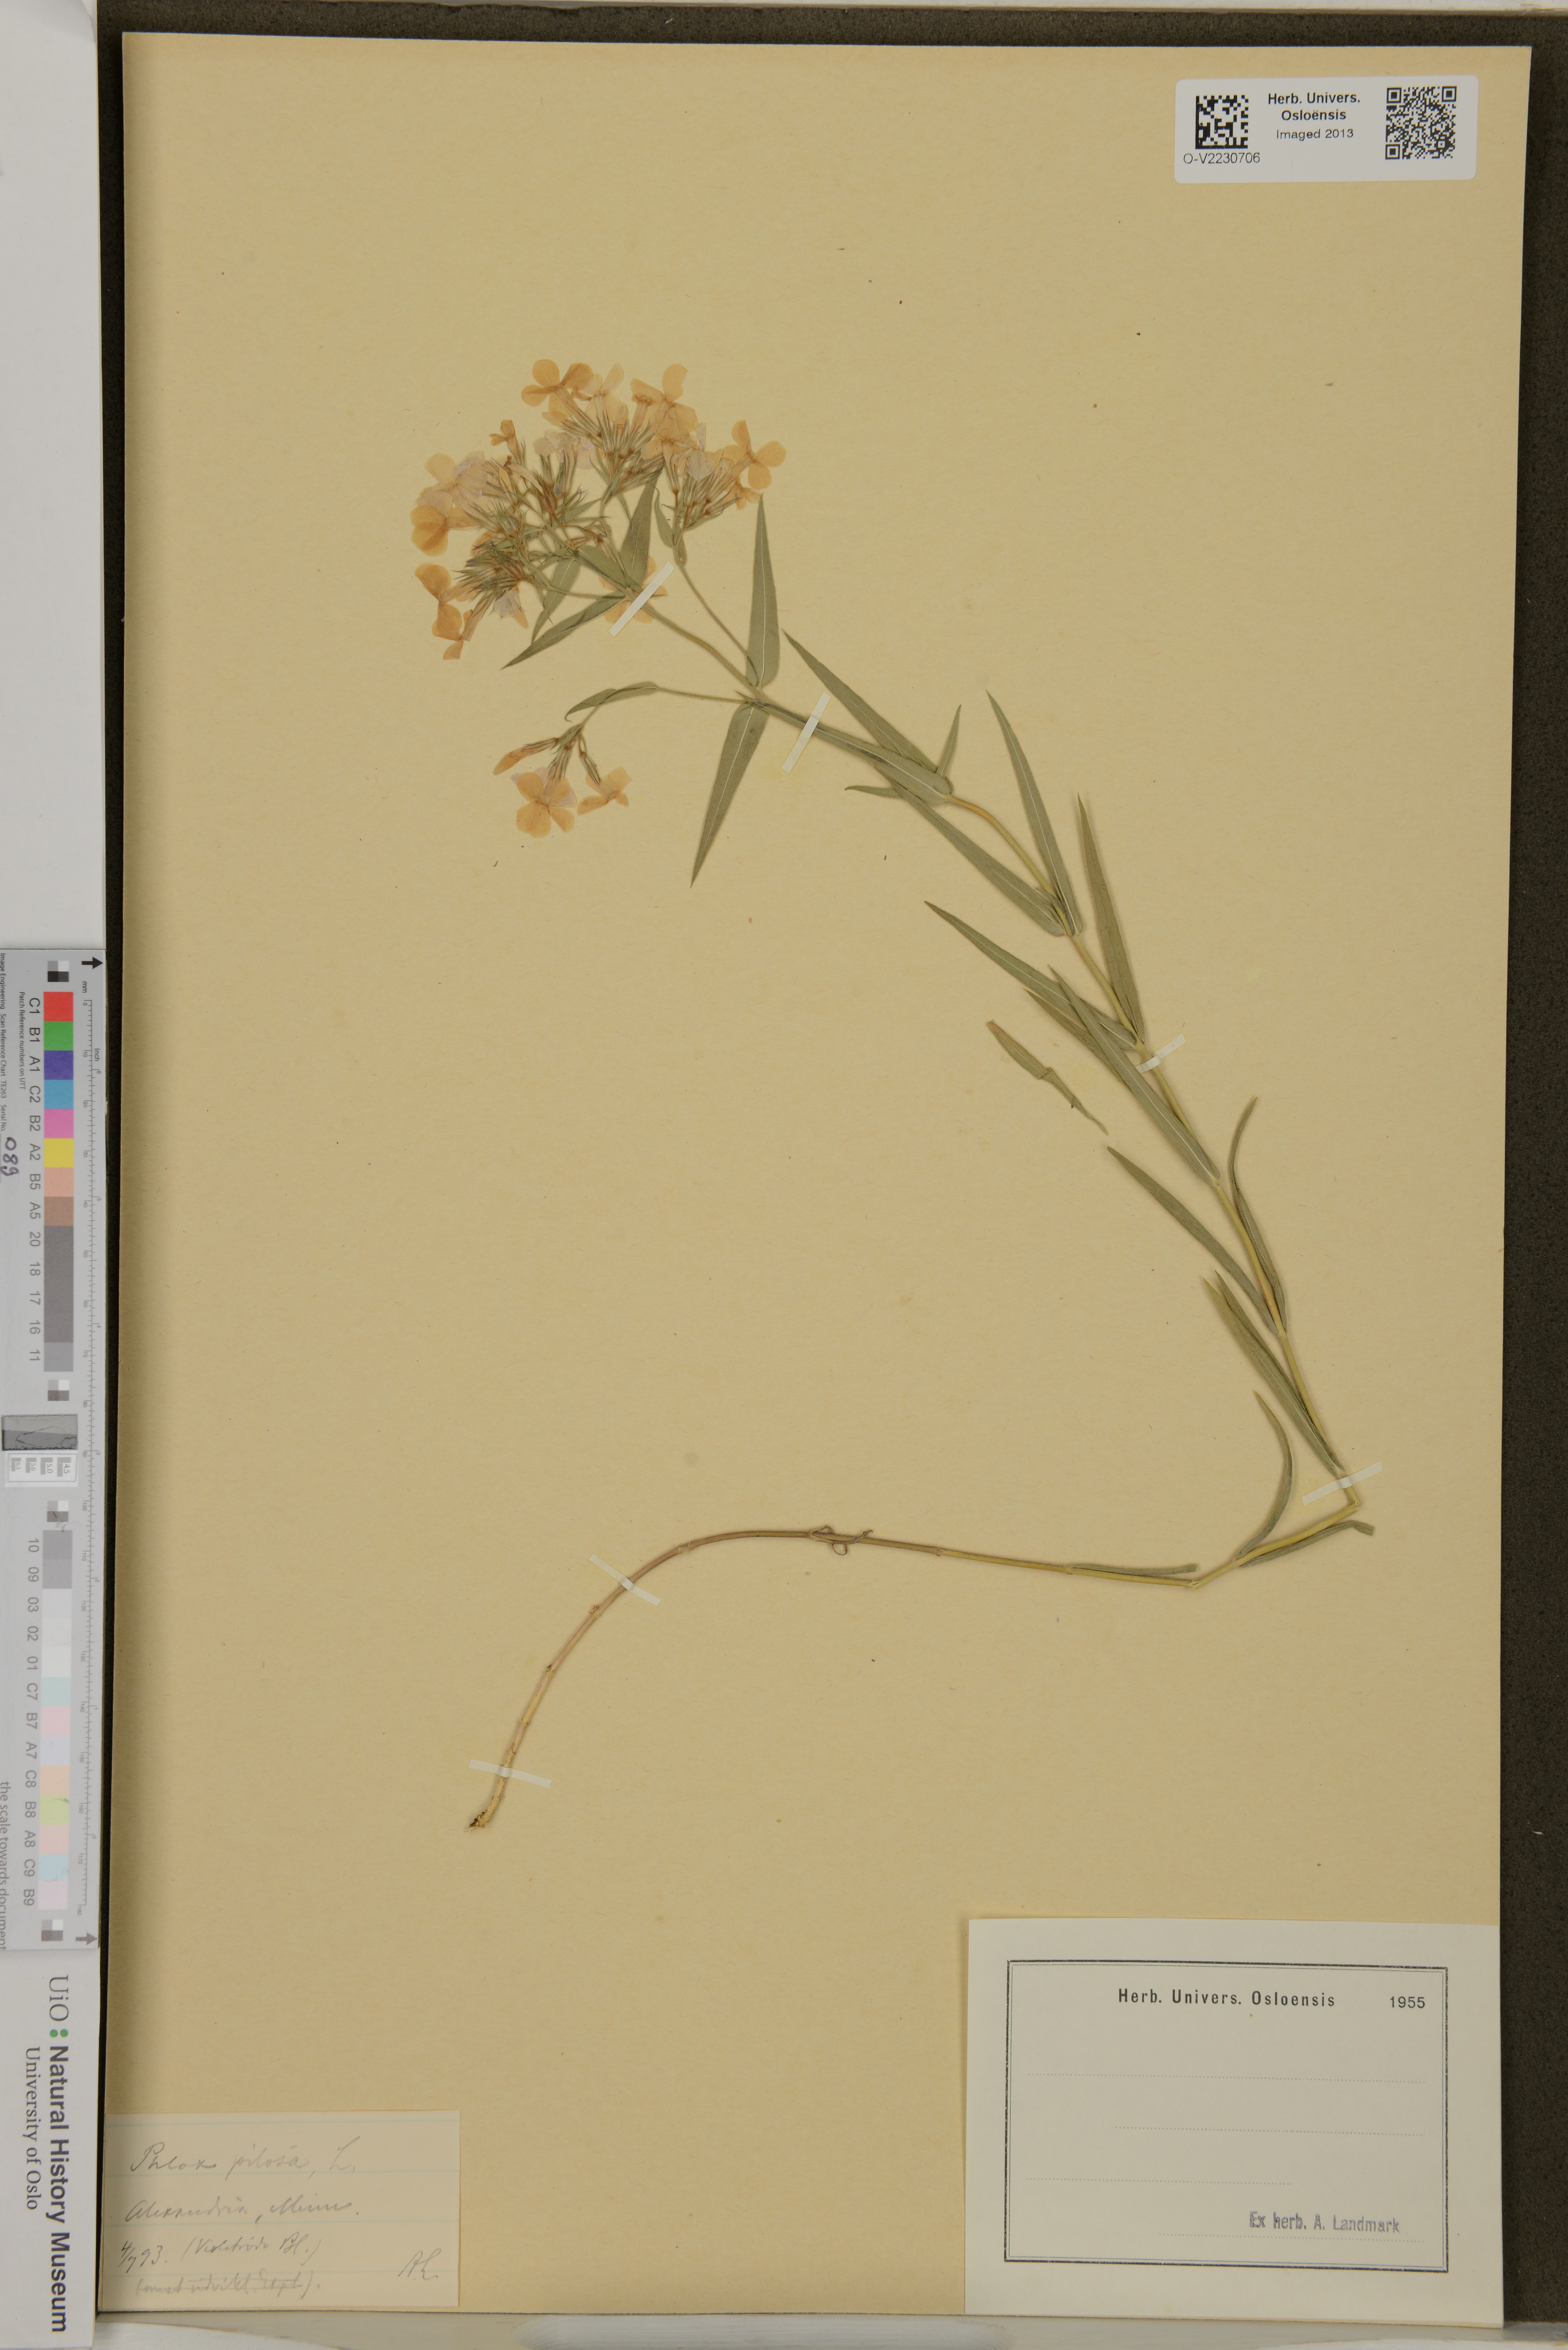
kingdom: Plantae
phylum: Tracheophyta
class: Magnoliopsida
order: Ericales
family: Polemoniaceae
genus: Phlox
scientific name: Phlox pilosa
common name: Prairie phlox
